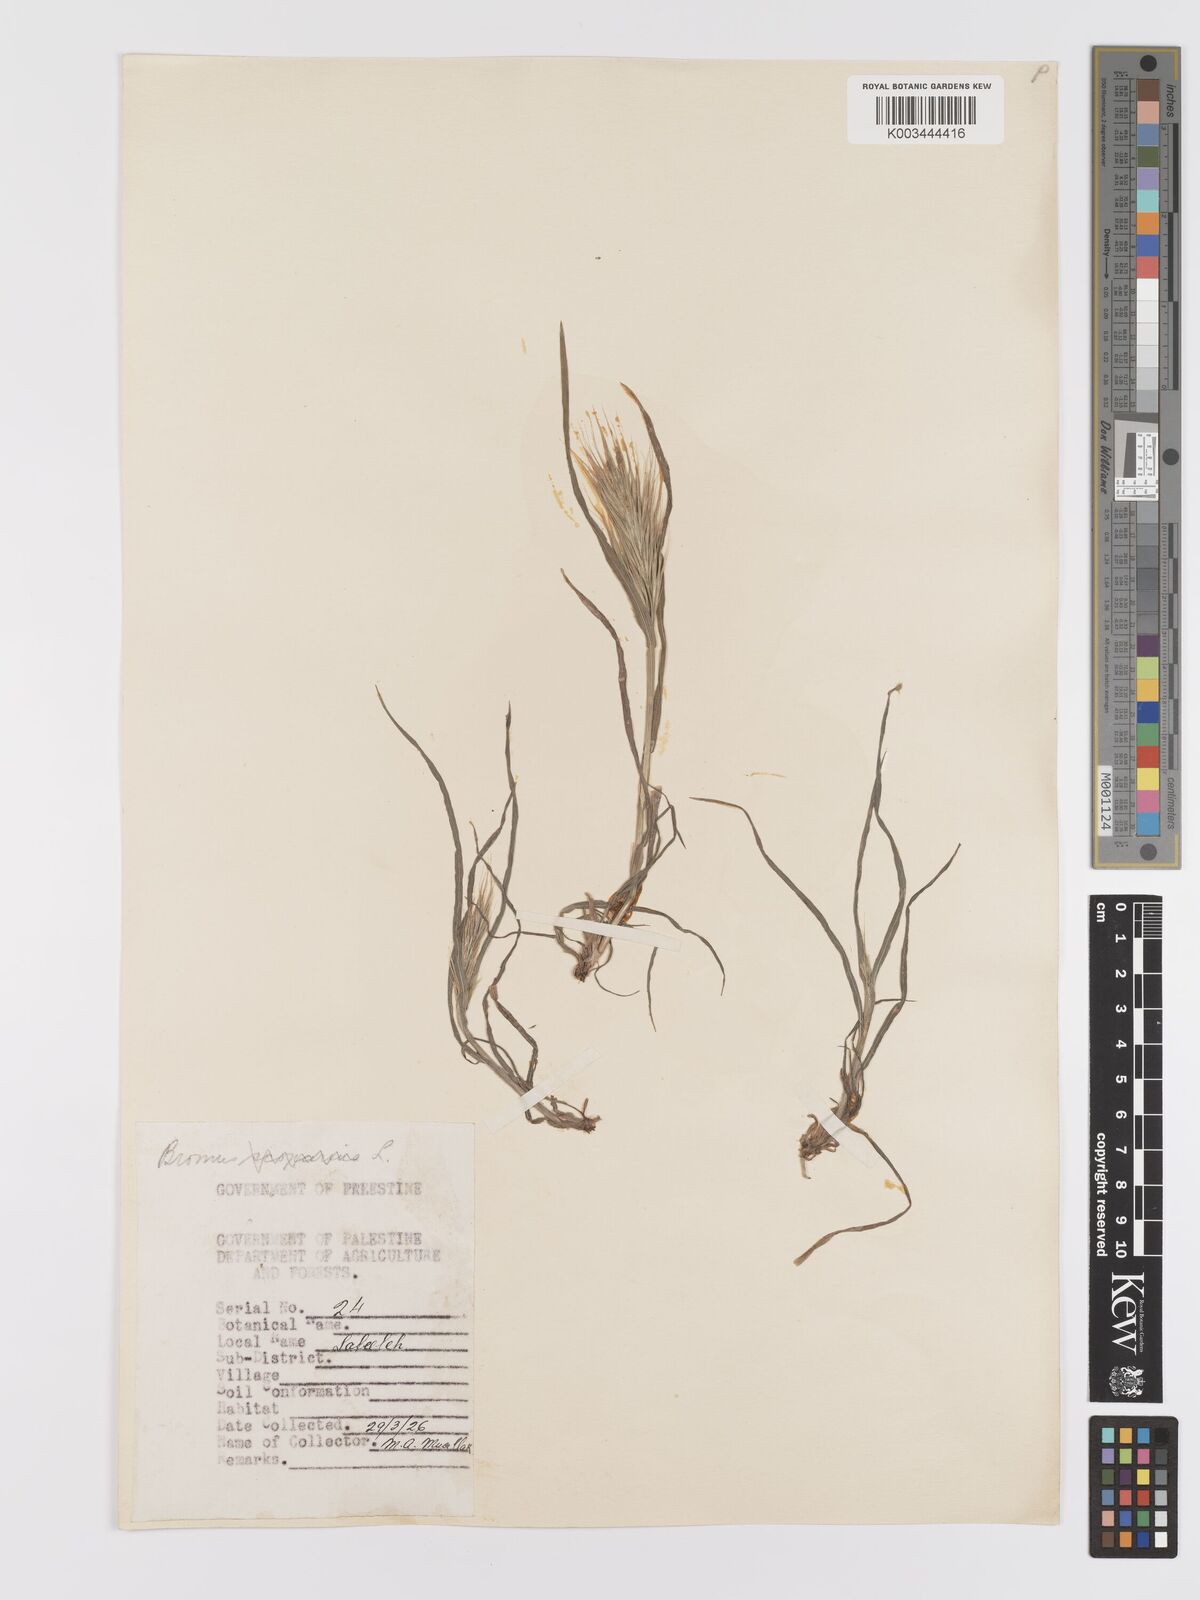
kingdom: Plantae
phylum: Tracheophyta
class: Liliopsida
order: Poales
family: Poaceae
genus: Bromus
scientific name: Bromus rubens
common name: Red brome
